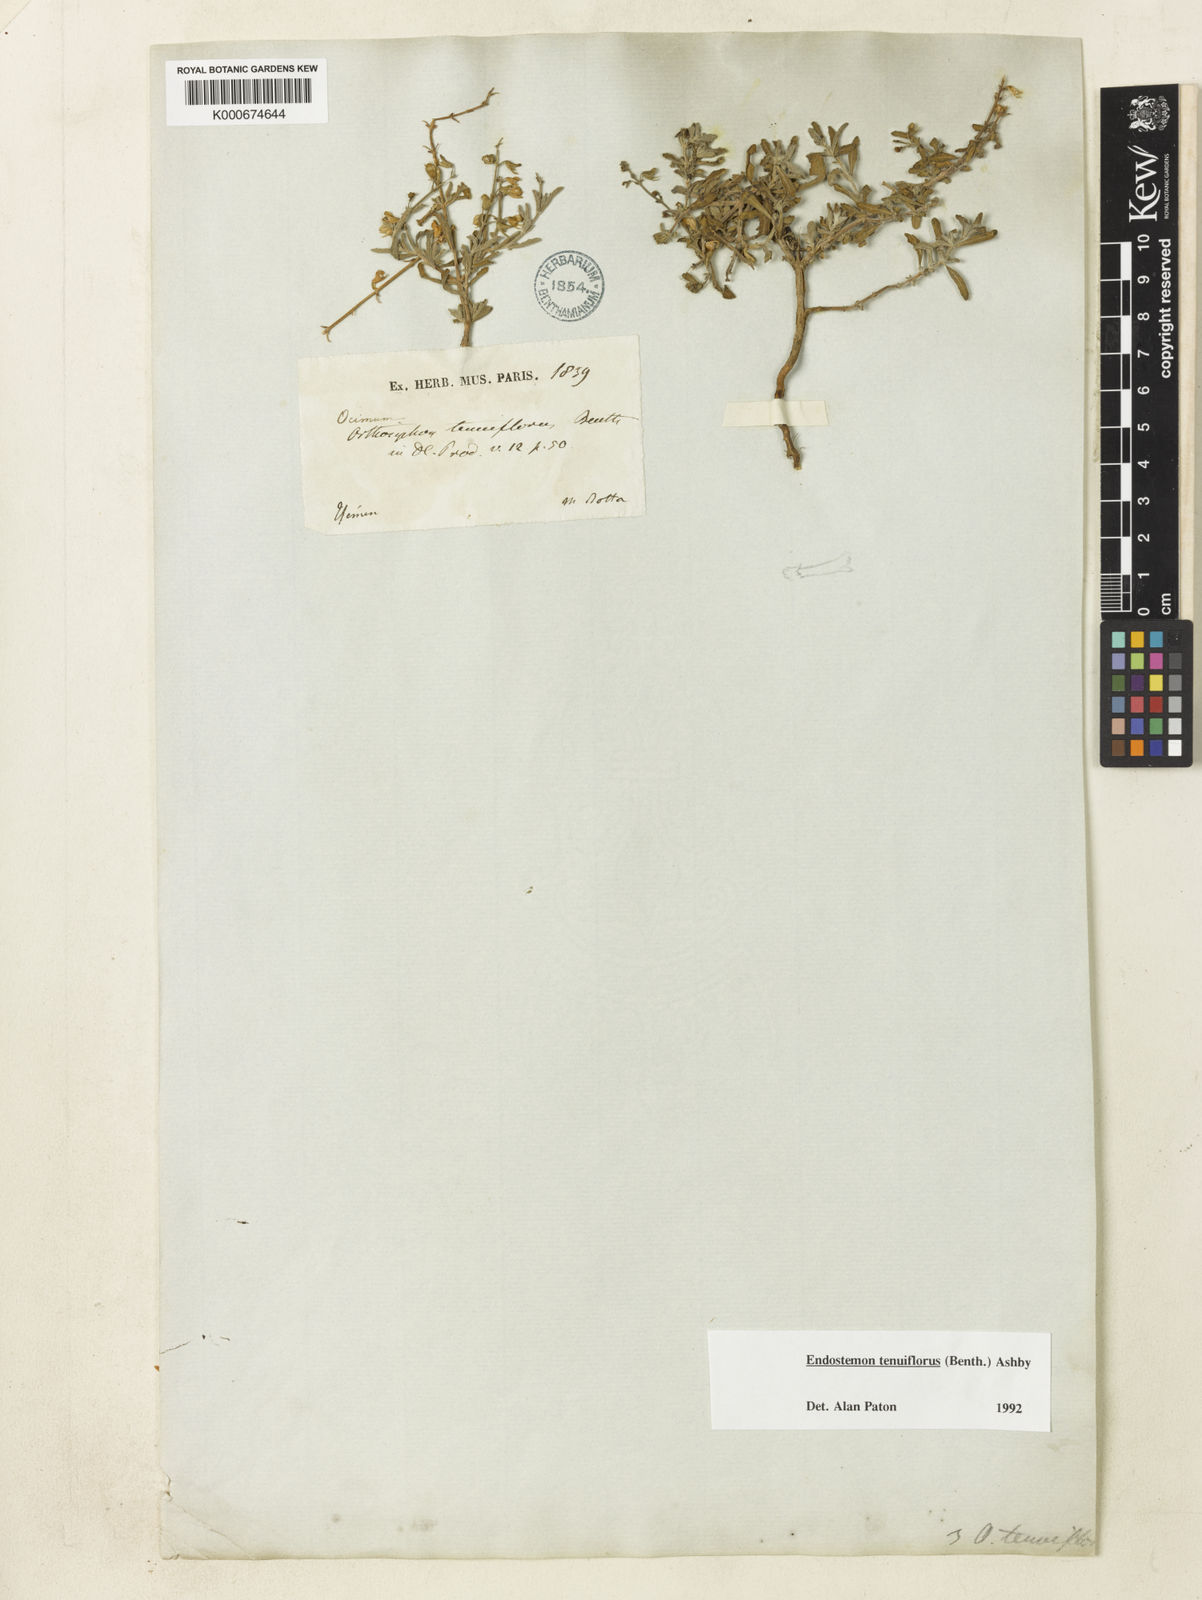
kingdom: Plantae
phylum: Tracheophyta
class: Magnoliopsida
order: Lamiales
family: Lamiaceae
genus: Endostemon
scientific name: Endostemon tenuiflorus
